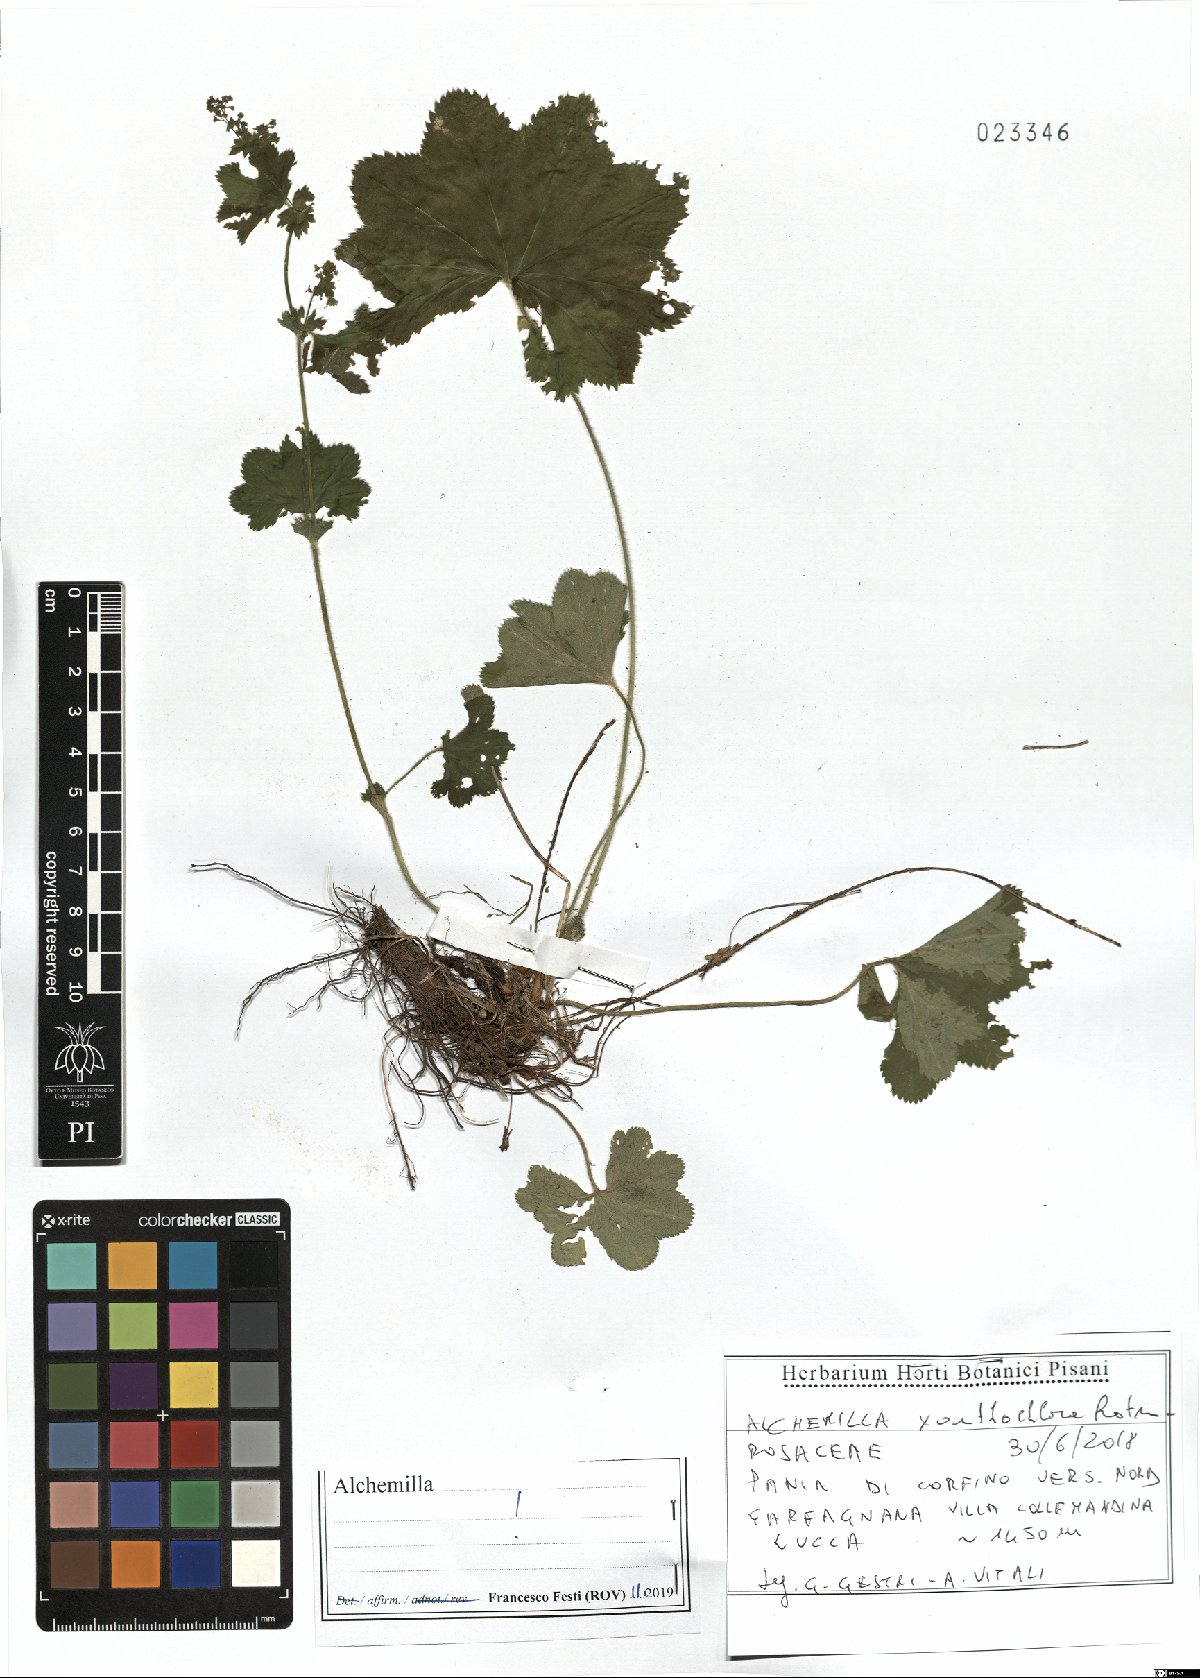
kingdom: Plantae
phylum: Tracheophyta
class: Magnoliopsida
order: Rosales
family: Rosaceae
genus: Alchemilla
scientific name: Alchemilla xanthochlora
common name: Intermediate lady's-mantle
